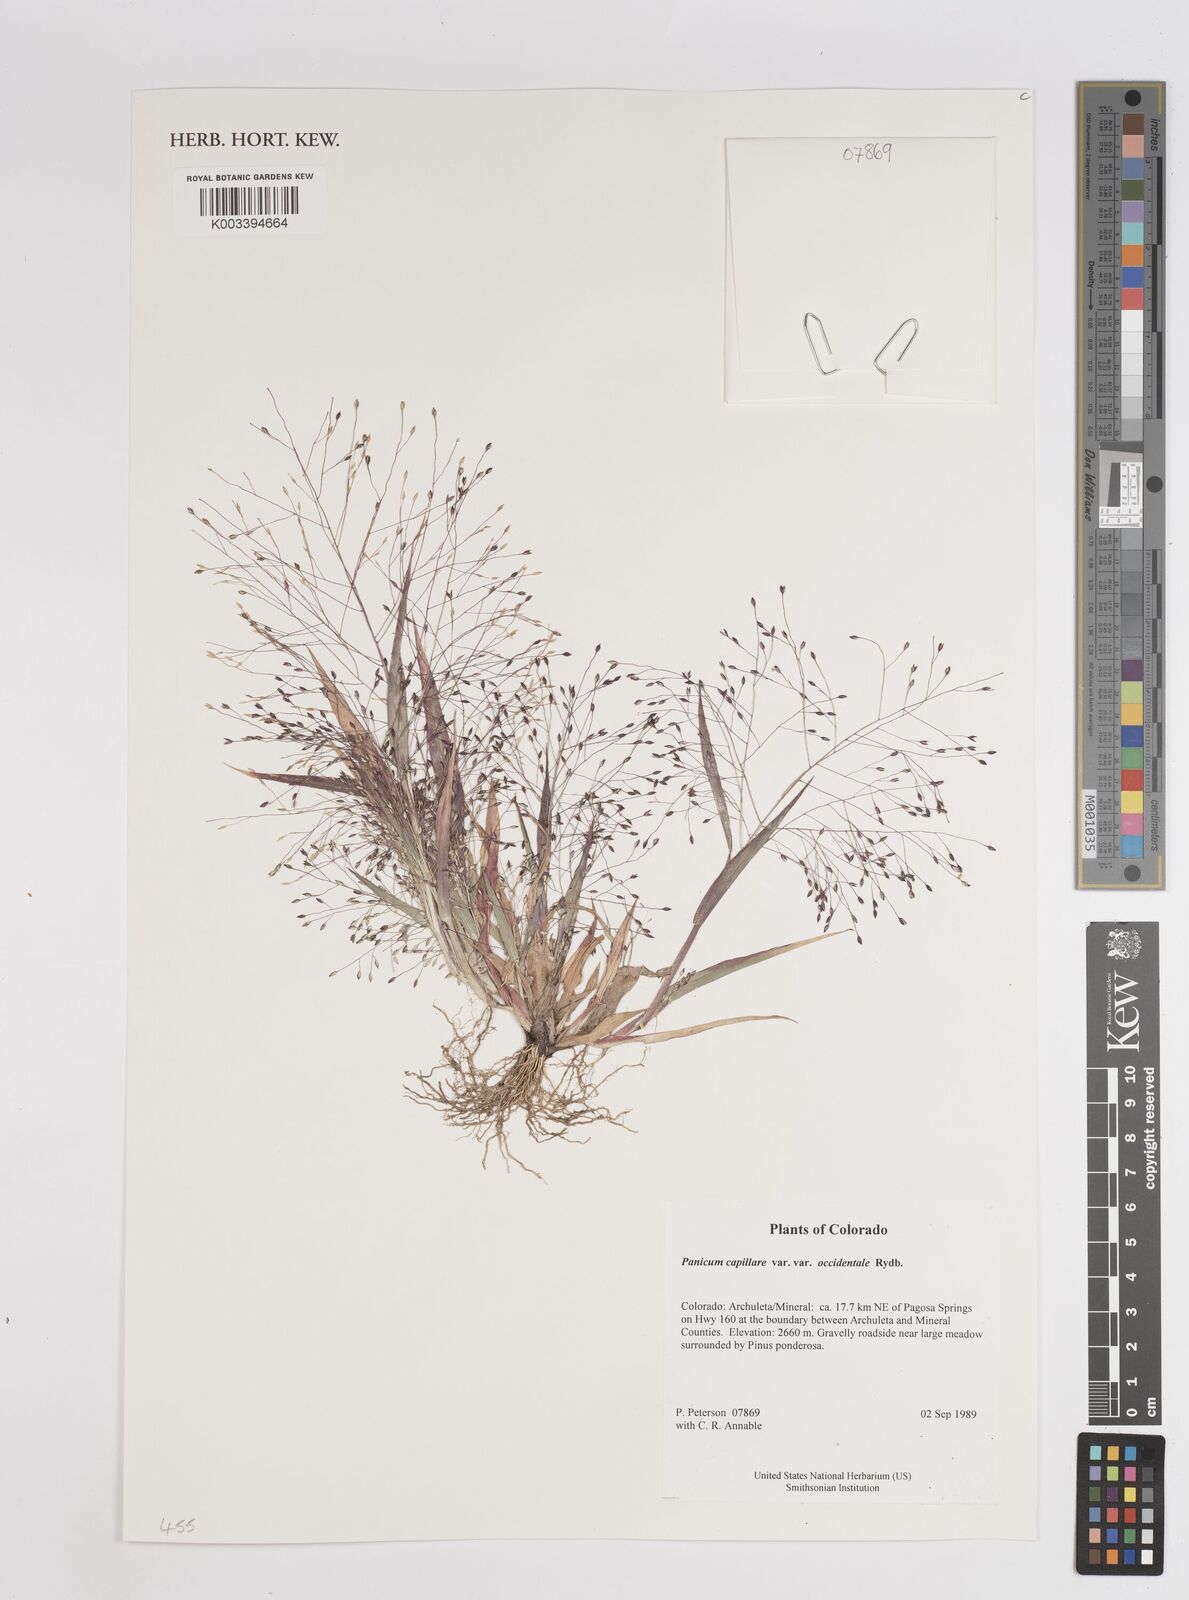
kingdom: Plantae
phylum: Tracheophyta
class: Liliopsida
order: Poales
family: Poaceae
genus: Panicum
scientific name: Panicum capillare
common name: Witch-grass
